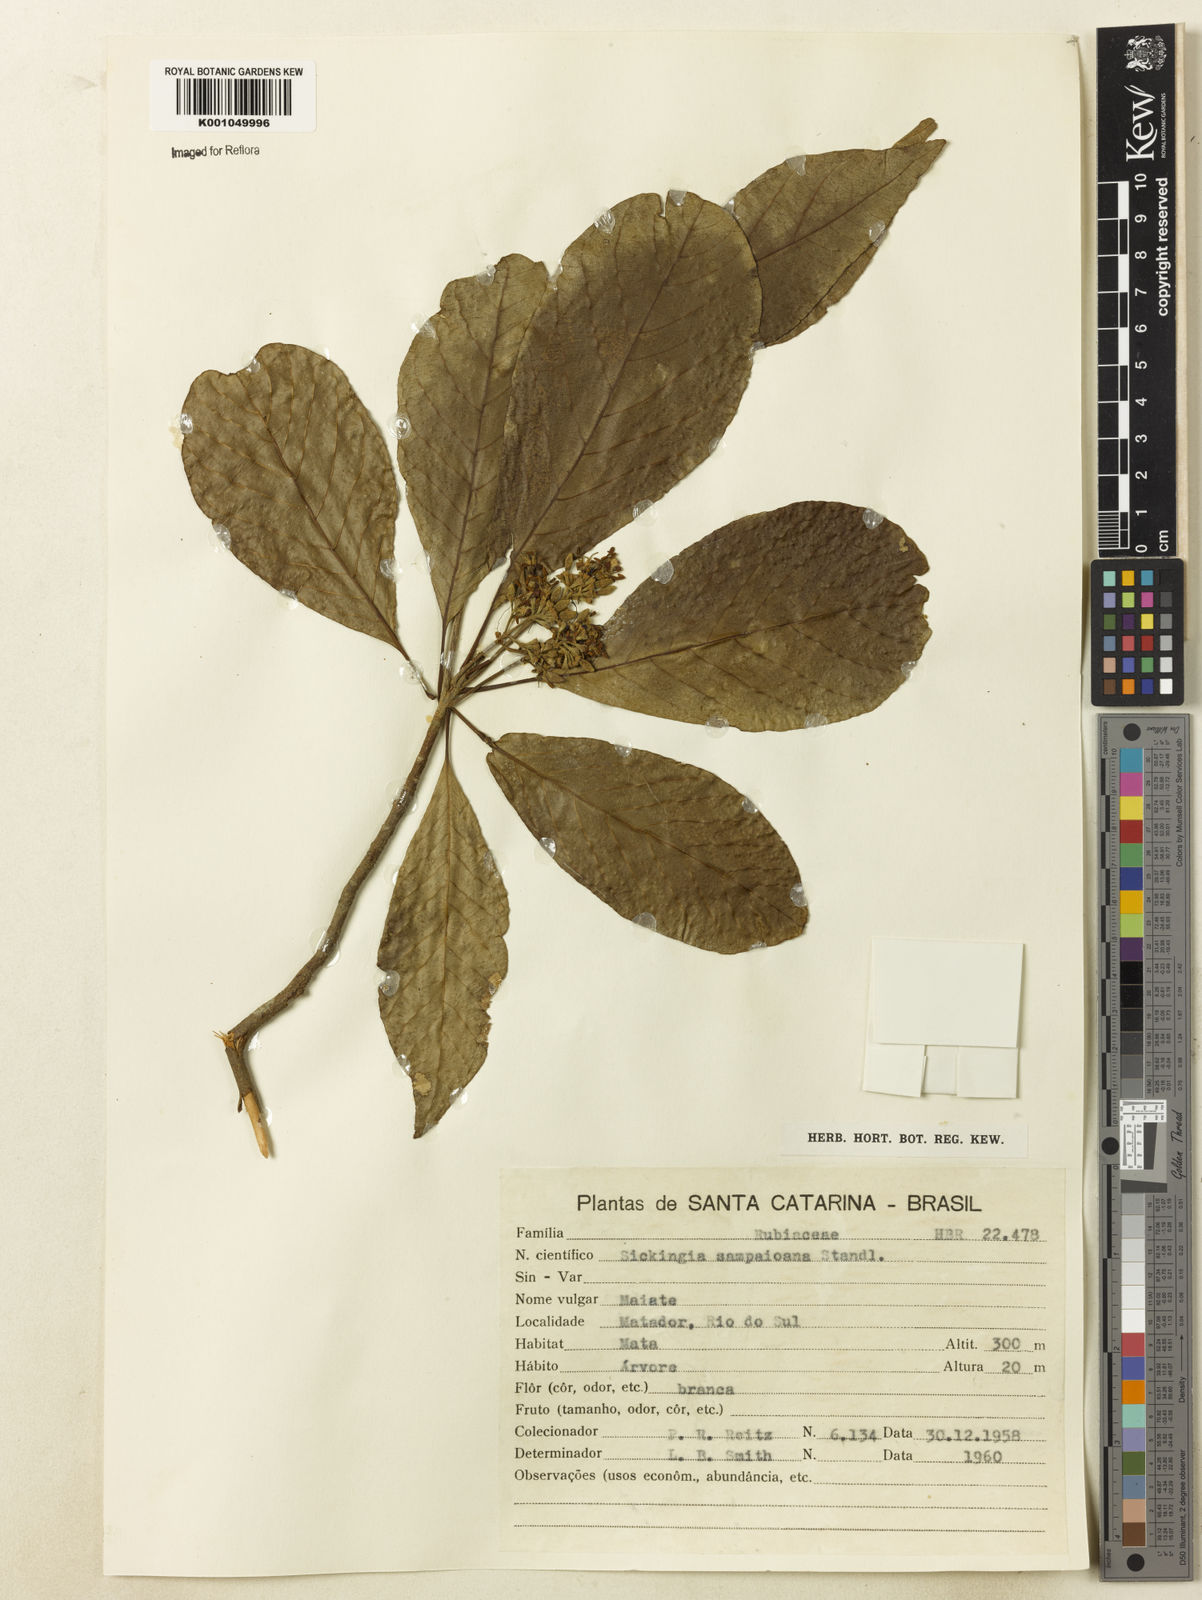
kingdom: Plantae
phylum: Tracheophyta
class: Magnoliopsida
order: Gentianales
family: Rubiaceae
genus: Simira
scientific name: Simira sampaioana
